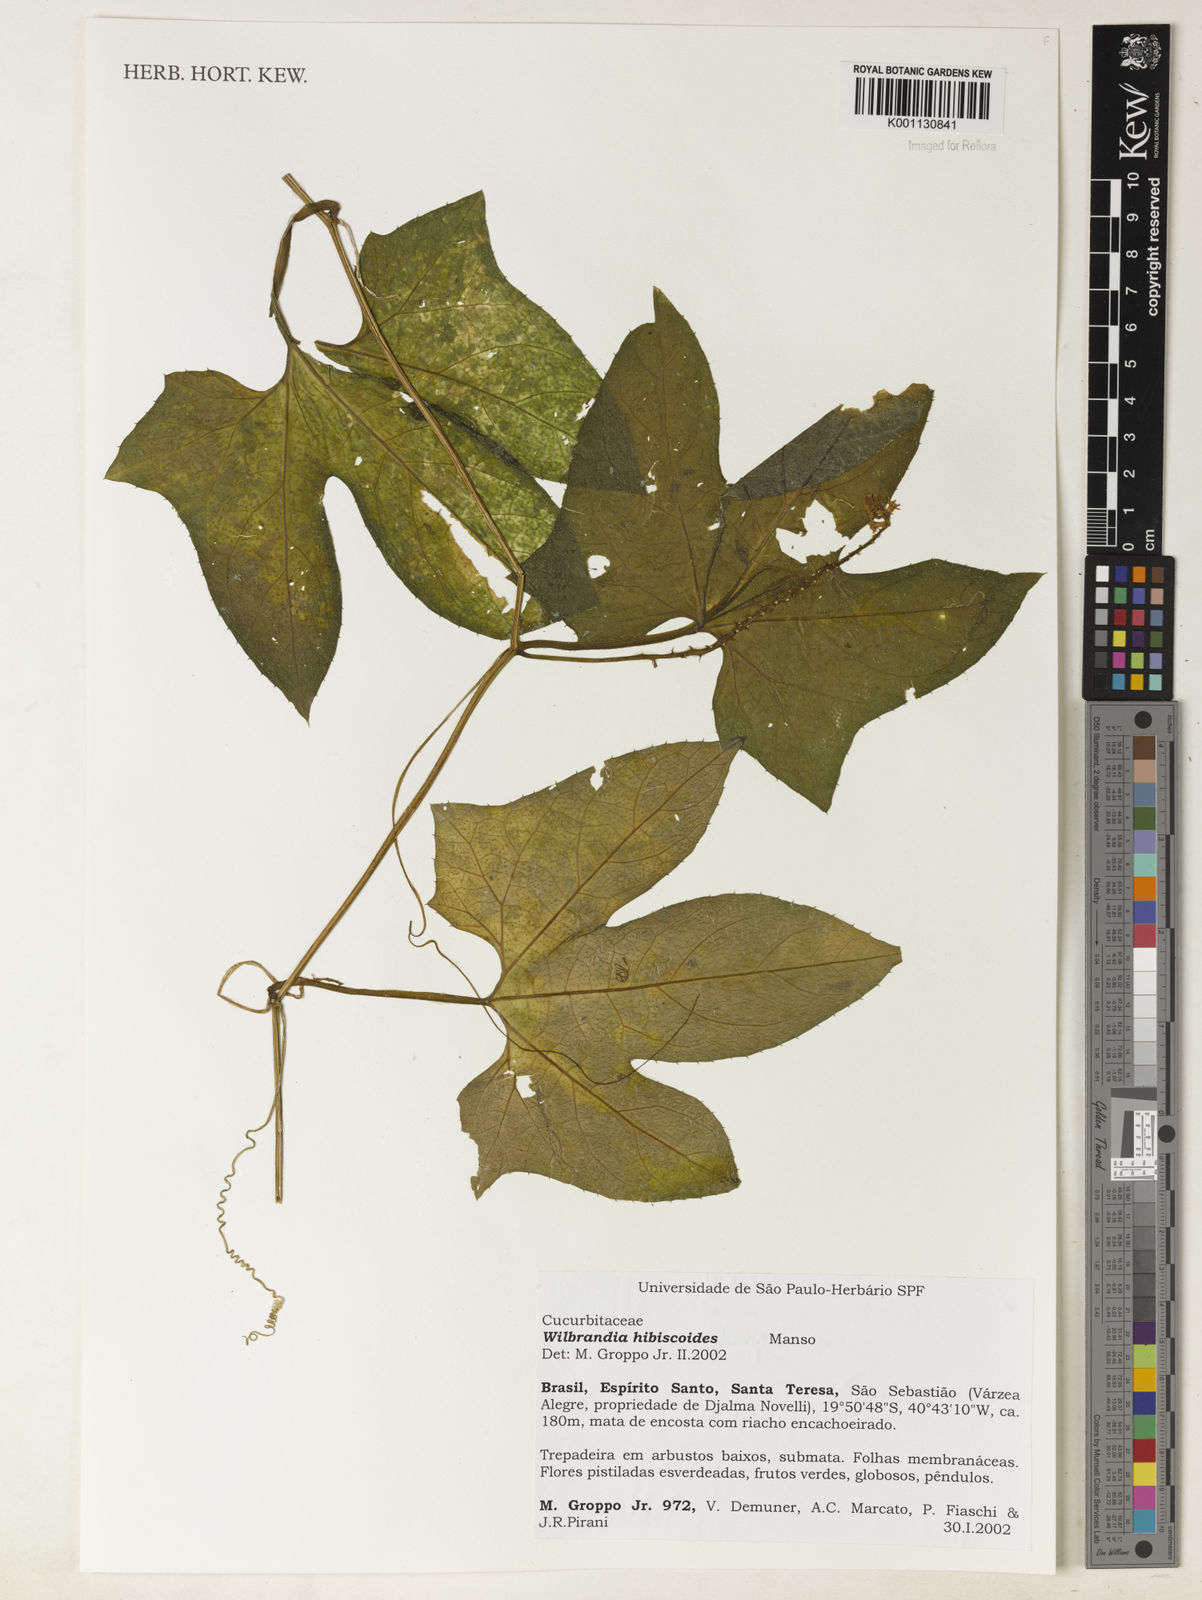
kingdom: Plantae
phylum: Tracheophyta
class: Magnoliopsida
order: Cucurbitales
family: Cucurbitaceae
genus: Wilbrandia
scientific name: Wilbrandia hibiscoides
